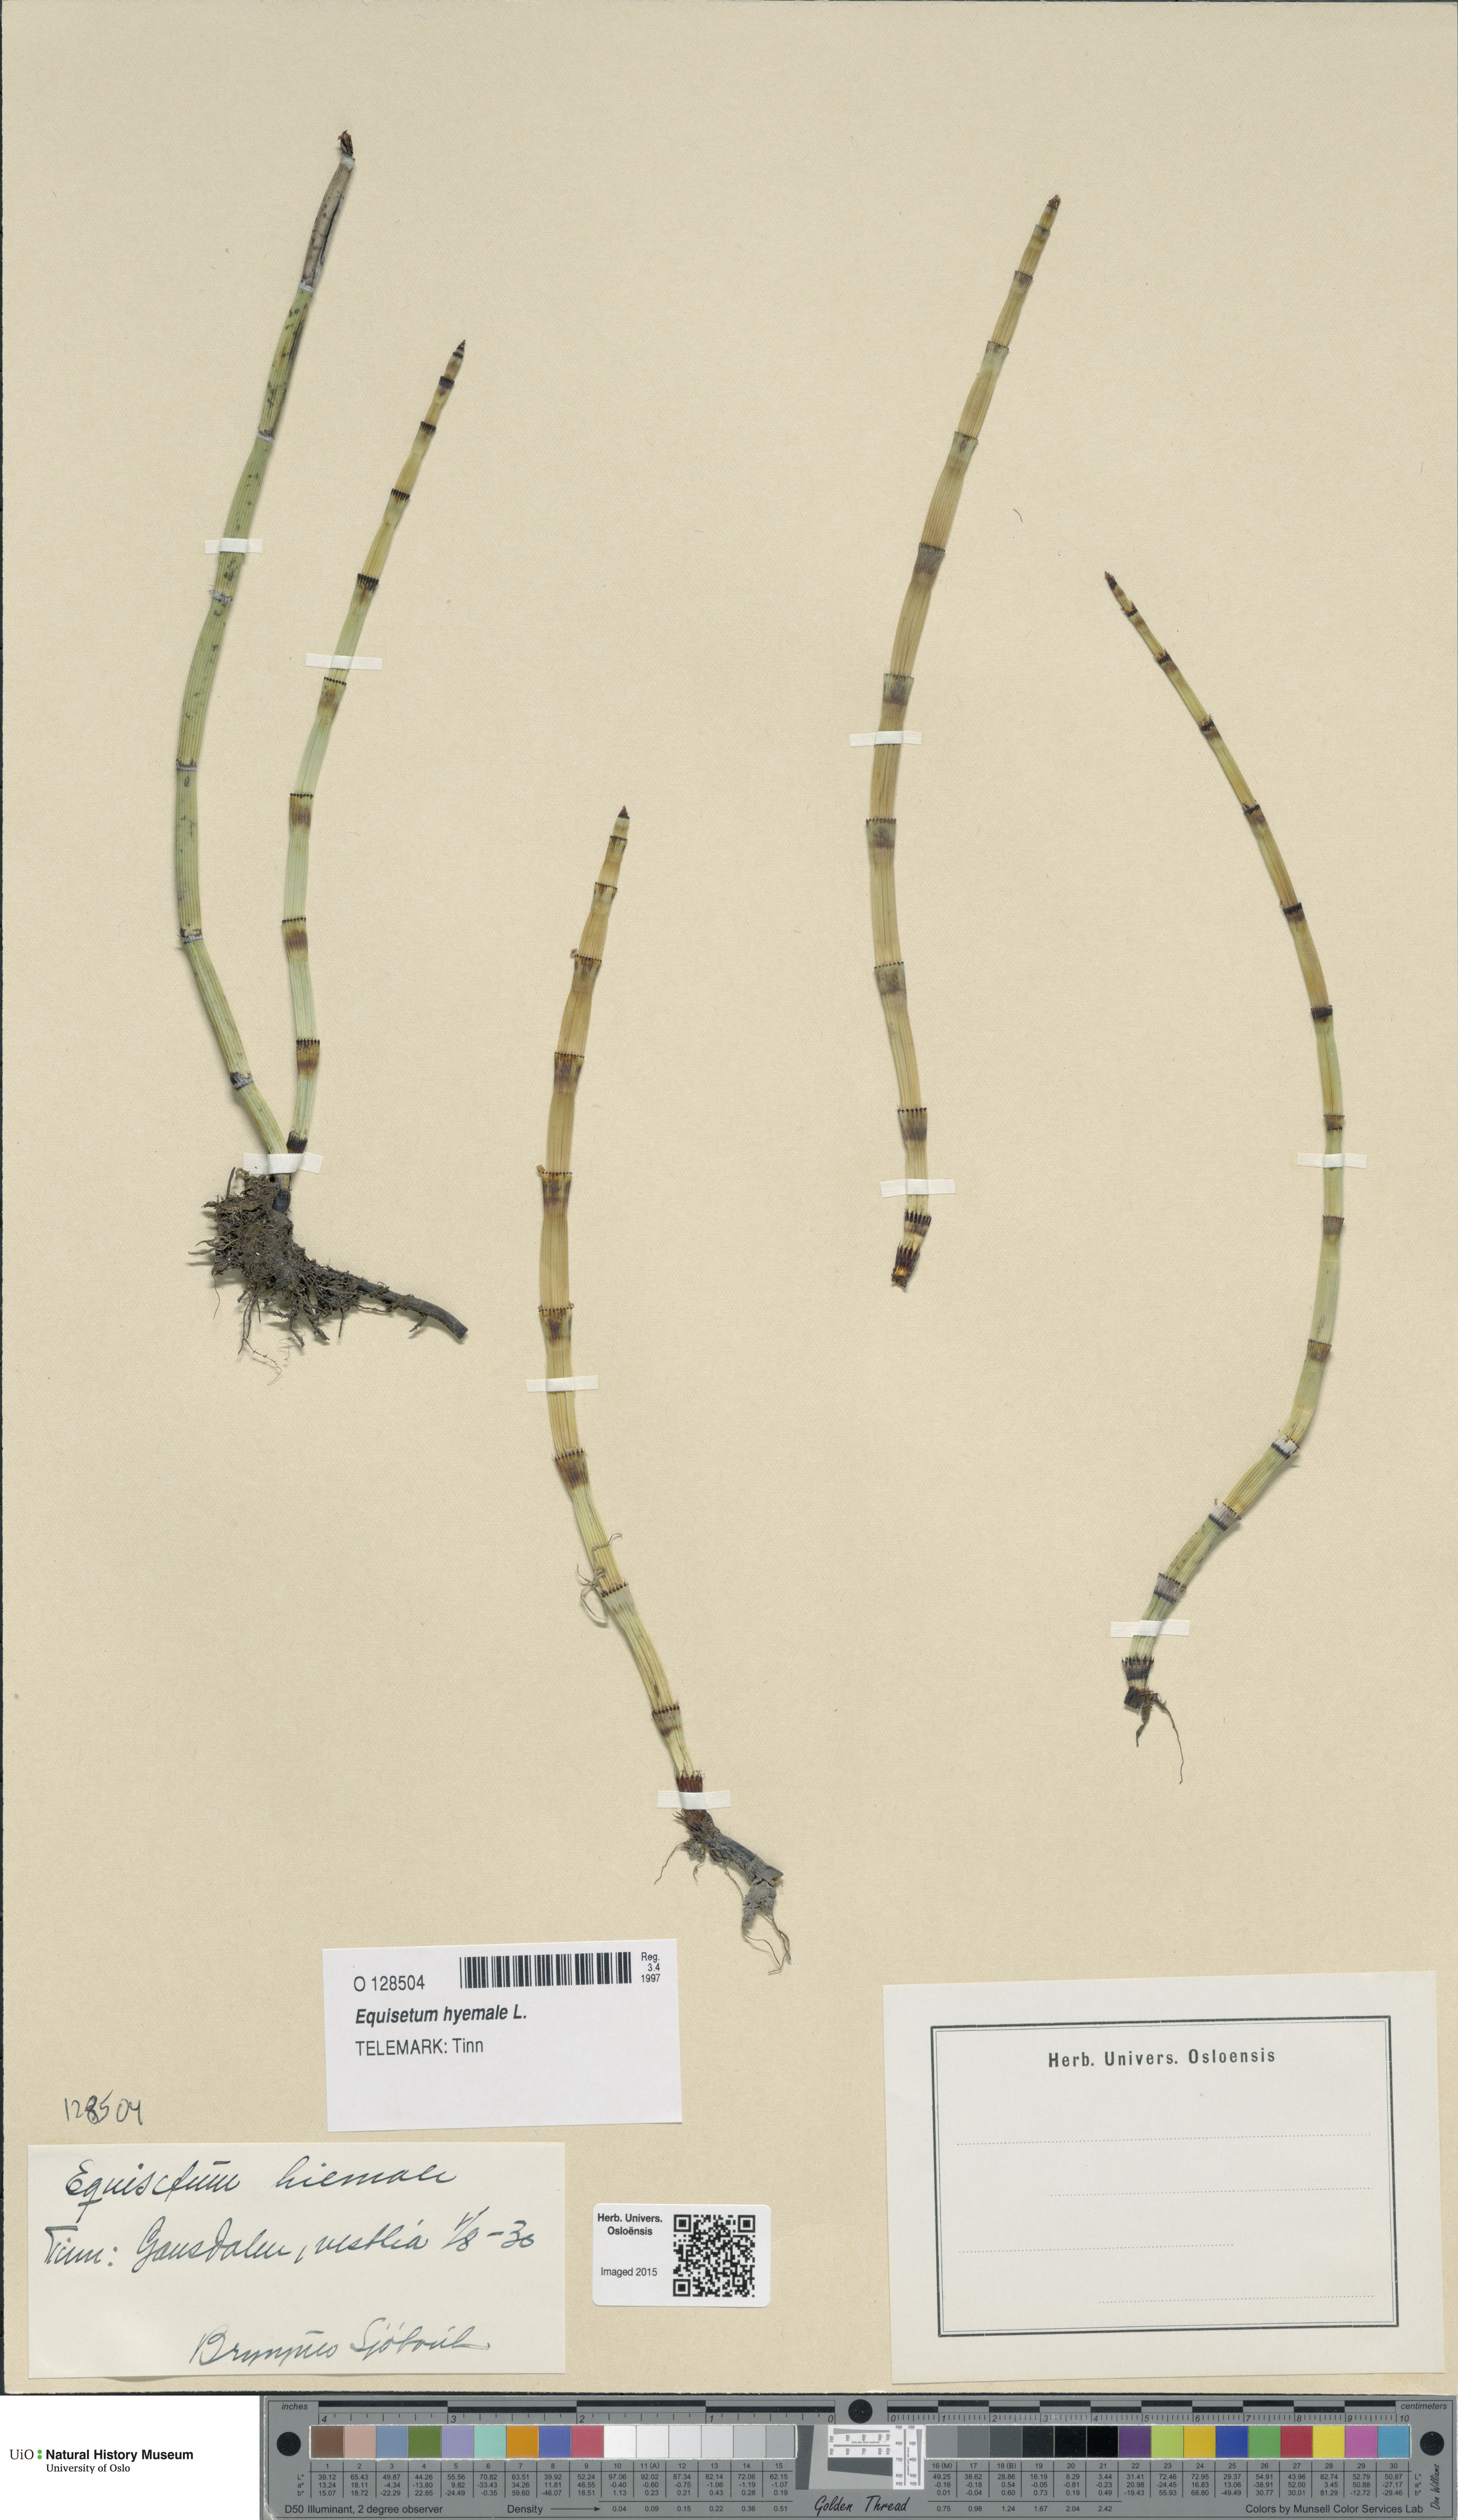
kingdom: Plantae
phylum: Tracheophyta
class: Polypodiopsida
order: Equisetales
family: Equisetaceae
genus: Equisetum
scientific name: Equisetum hyemale
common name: Rough horsetail
